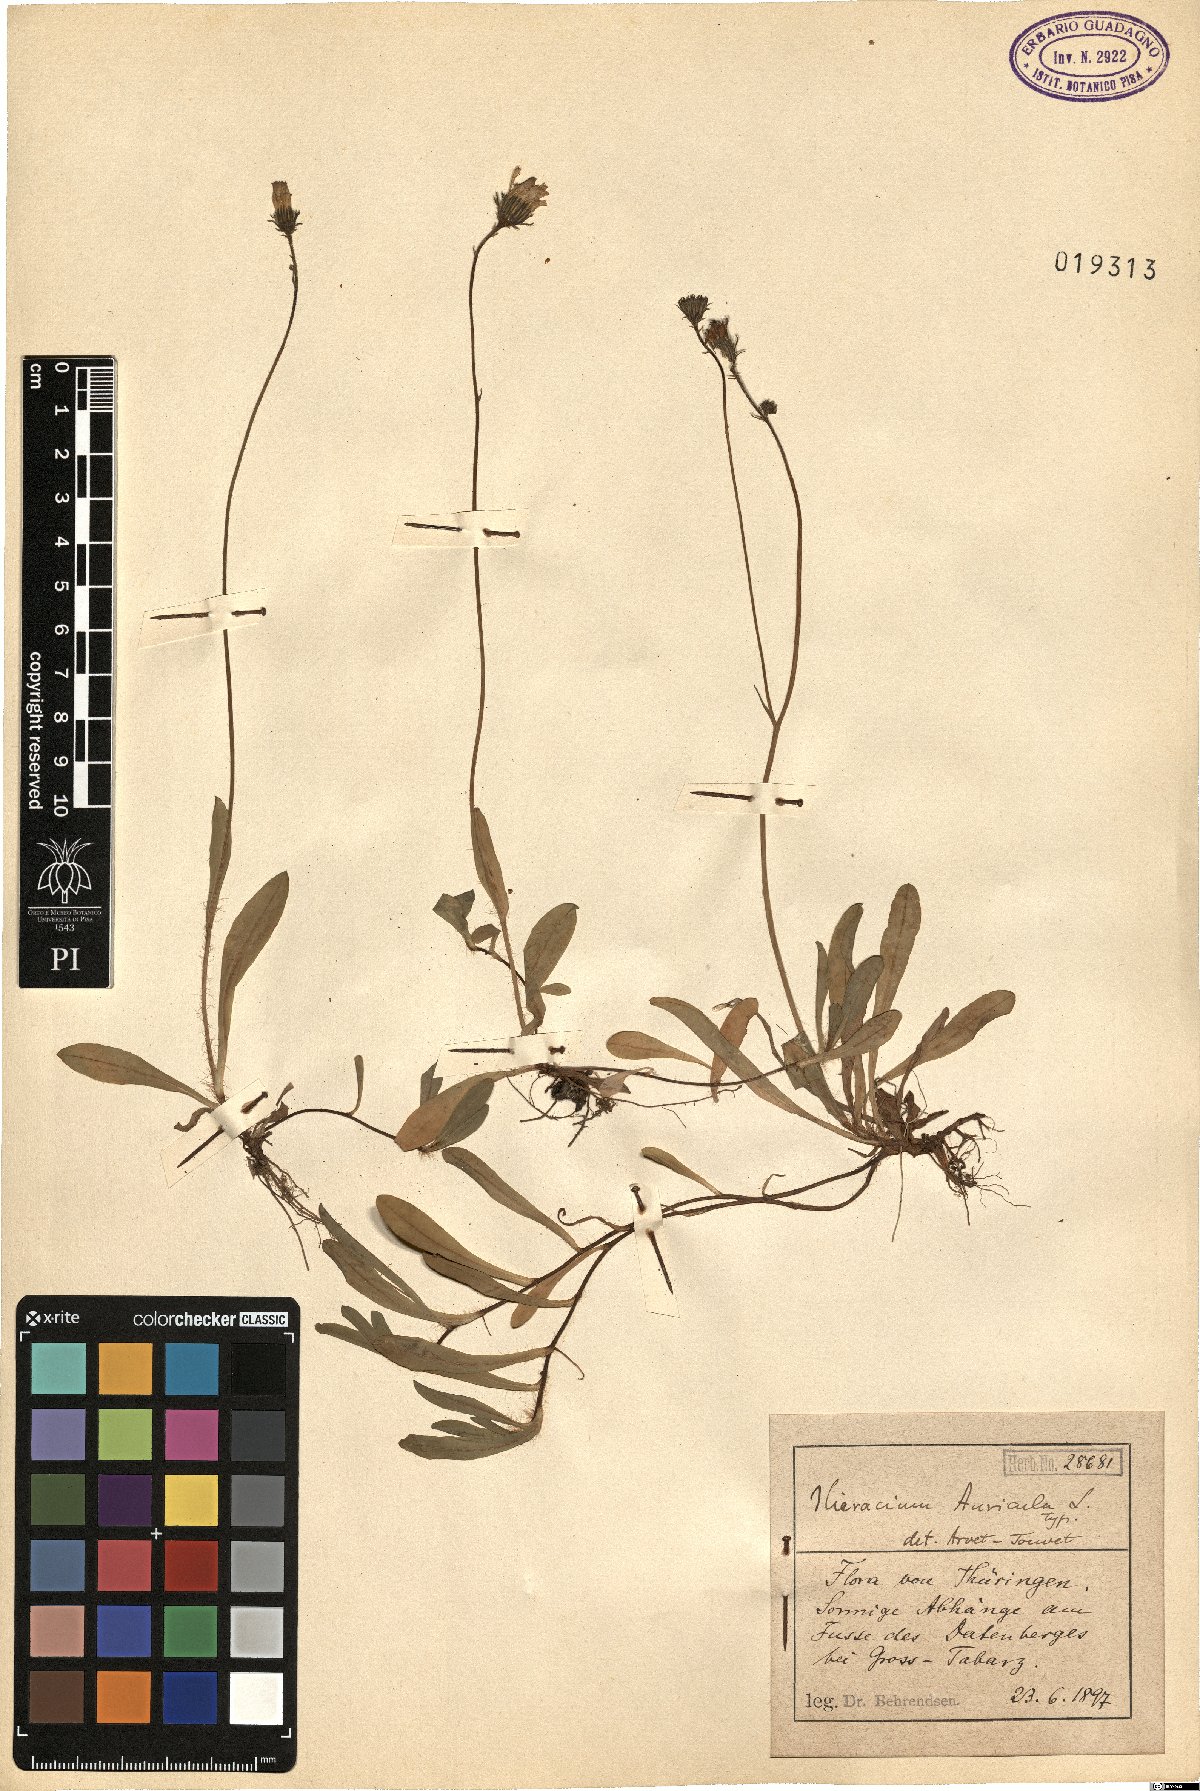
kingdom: Plantae
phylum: Tracheophyta
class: Magnoliopsida
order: Asterales
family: Asteraceae
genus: Pilosella
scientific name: Pilosella floribunda
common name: Glaucous hawkweed
